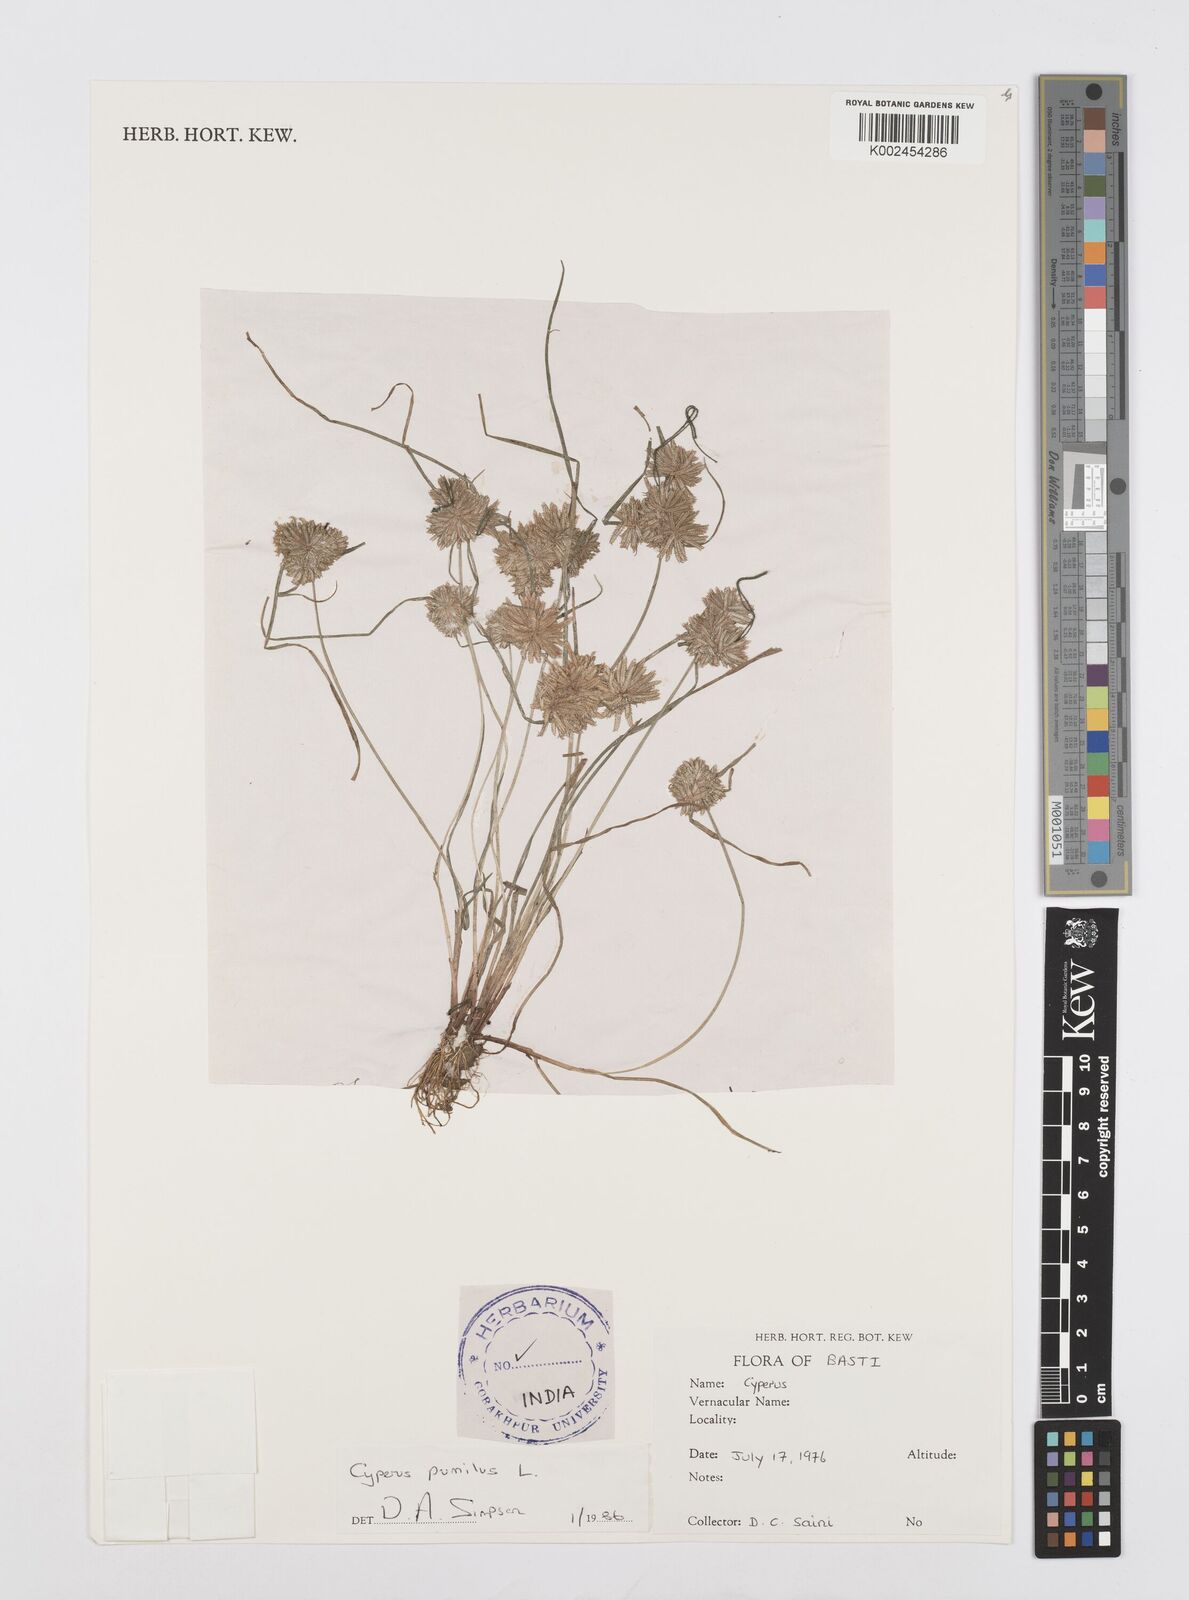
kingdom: Plantae
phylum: Tracheophyta
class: Liliopsida
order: Poales
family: Cyperaceae
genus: Cyperus
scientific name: Cyperus pumilus
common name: Low flatsedge
